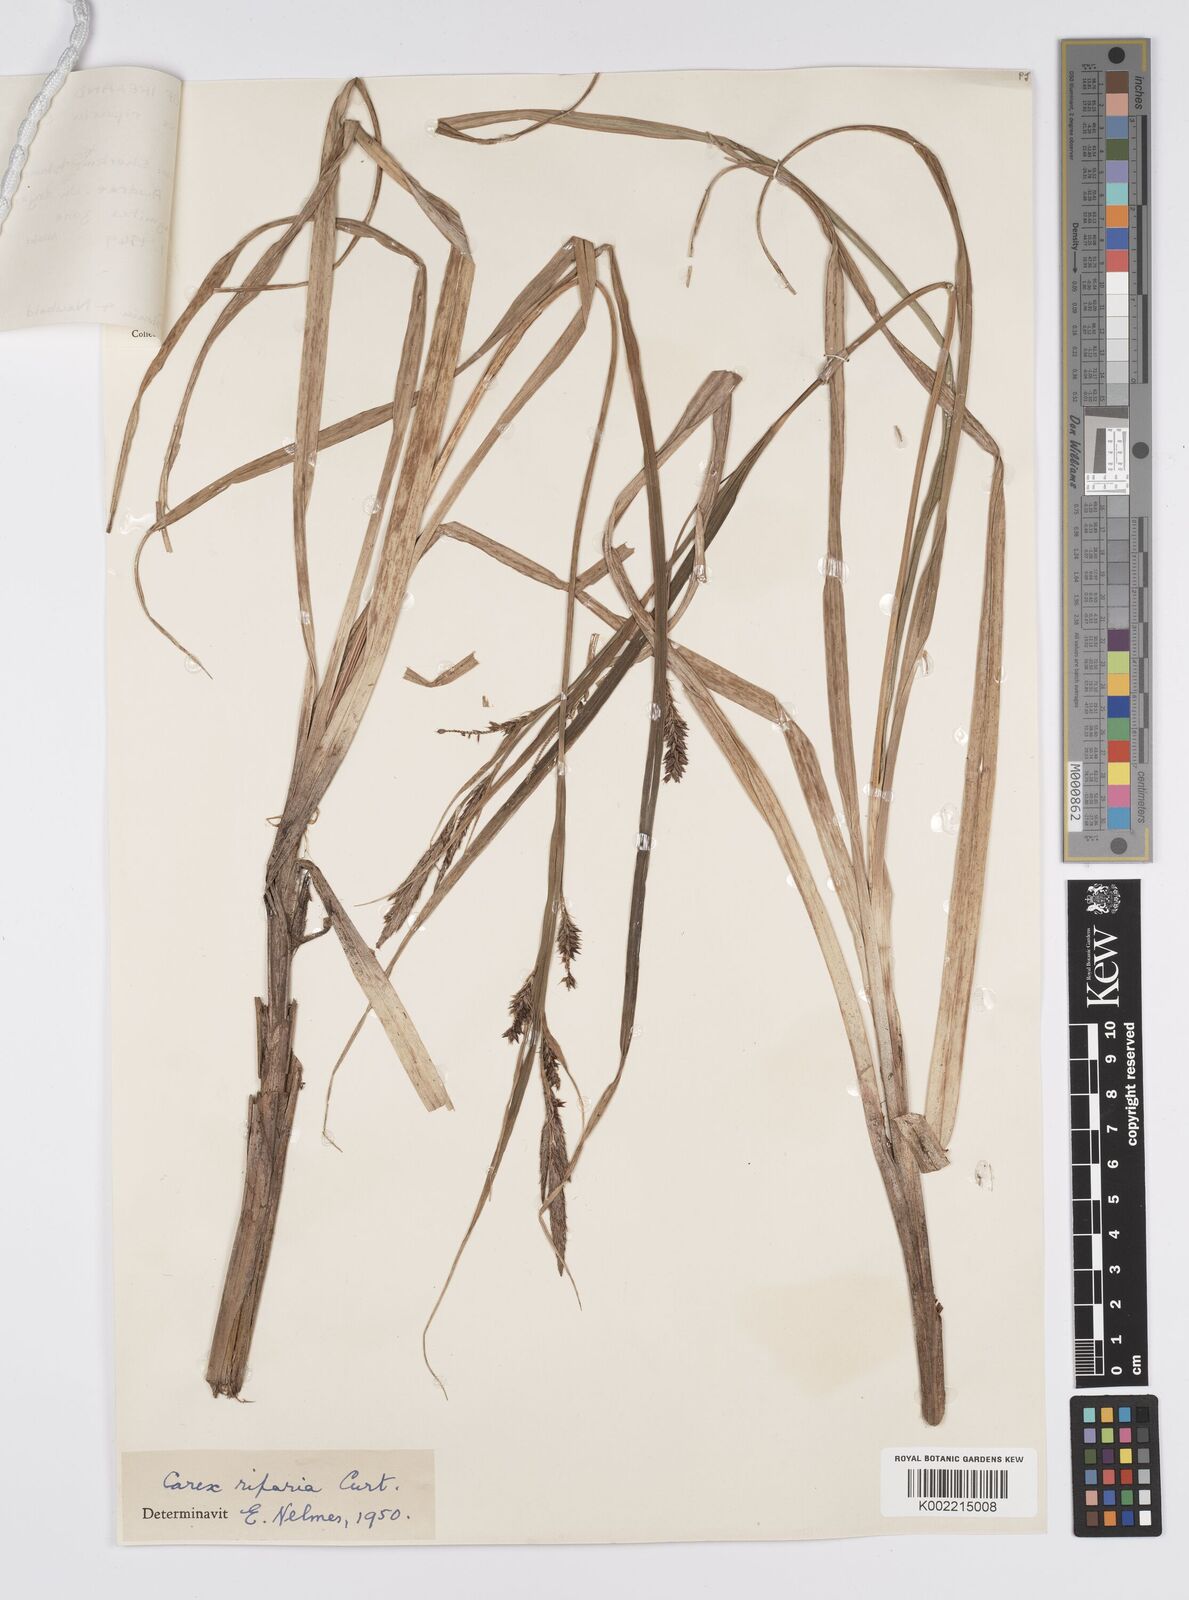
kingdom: Plantae
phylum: Tracheophyta
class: Liliopsida
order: Poales
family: Cyperaceae
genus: Carex
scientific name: Carex riparia
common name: Greater pond-sedge
